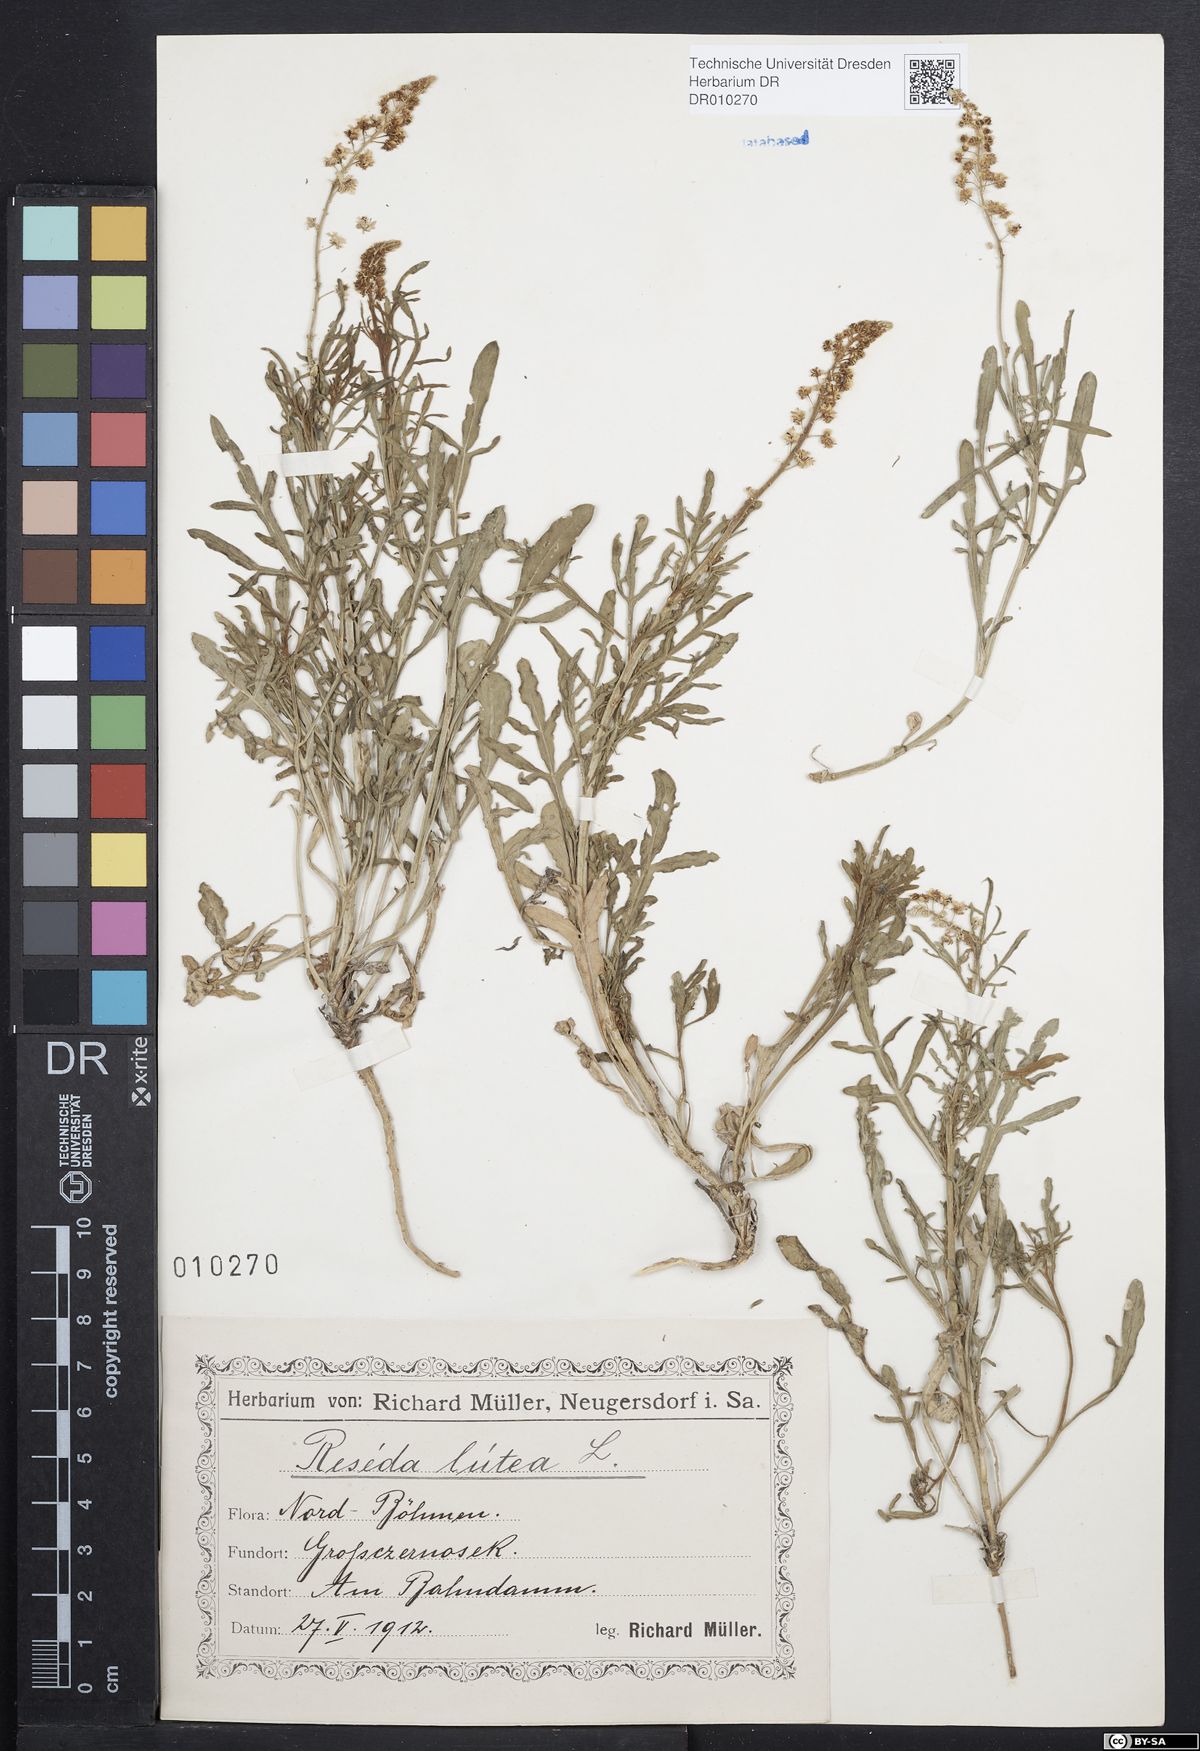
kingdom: Plantae
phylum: Tracheophyta
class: Magnoliopsida
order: Brassicales
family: Resedaceae
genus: Reseda
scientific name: Reseda lutea
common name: Wild mignonette
